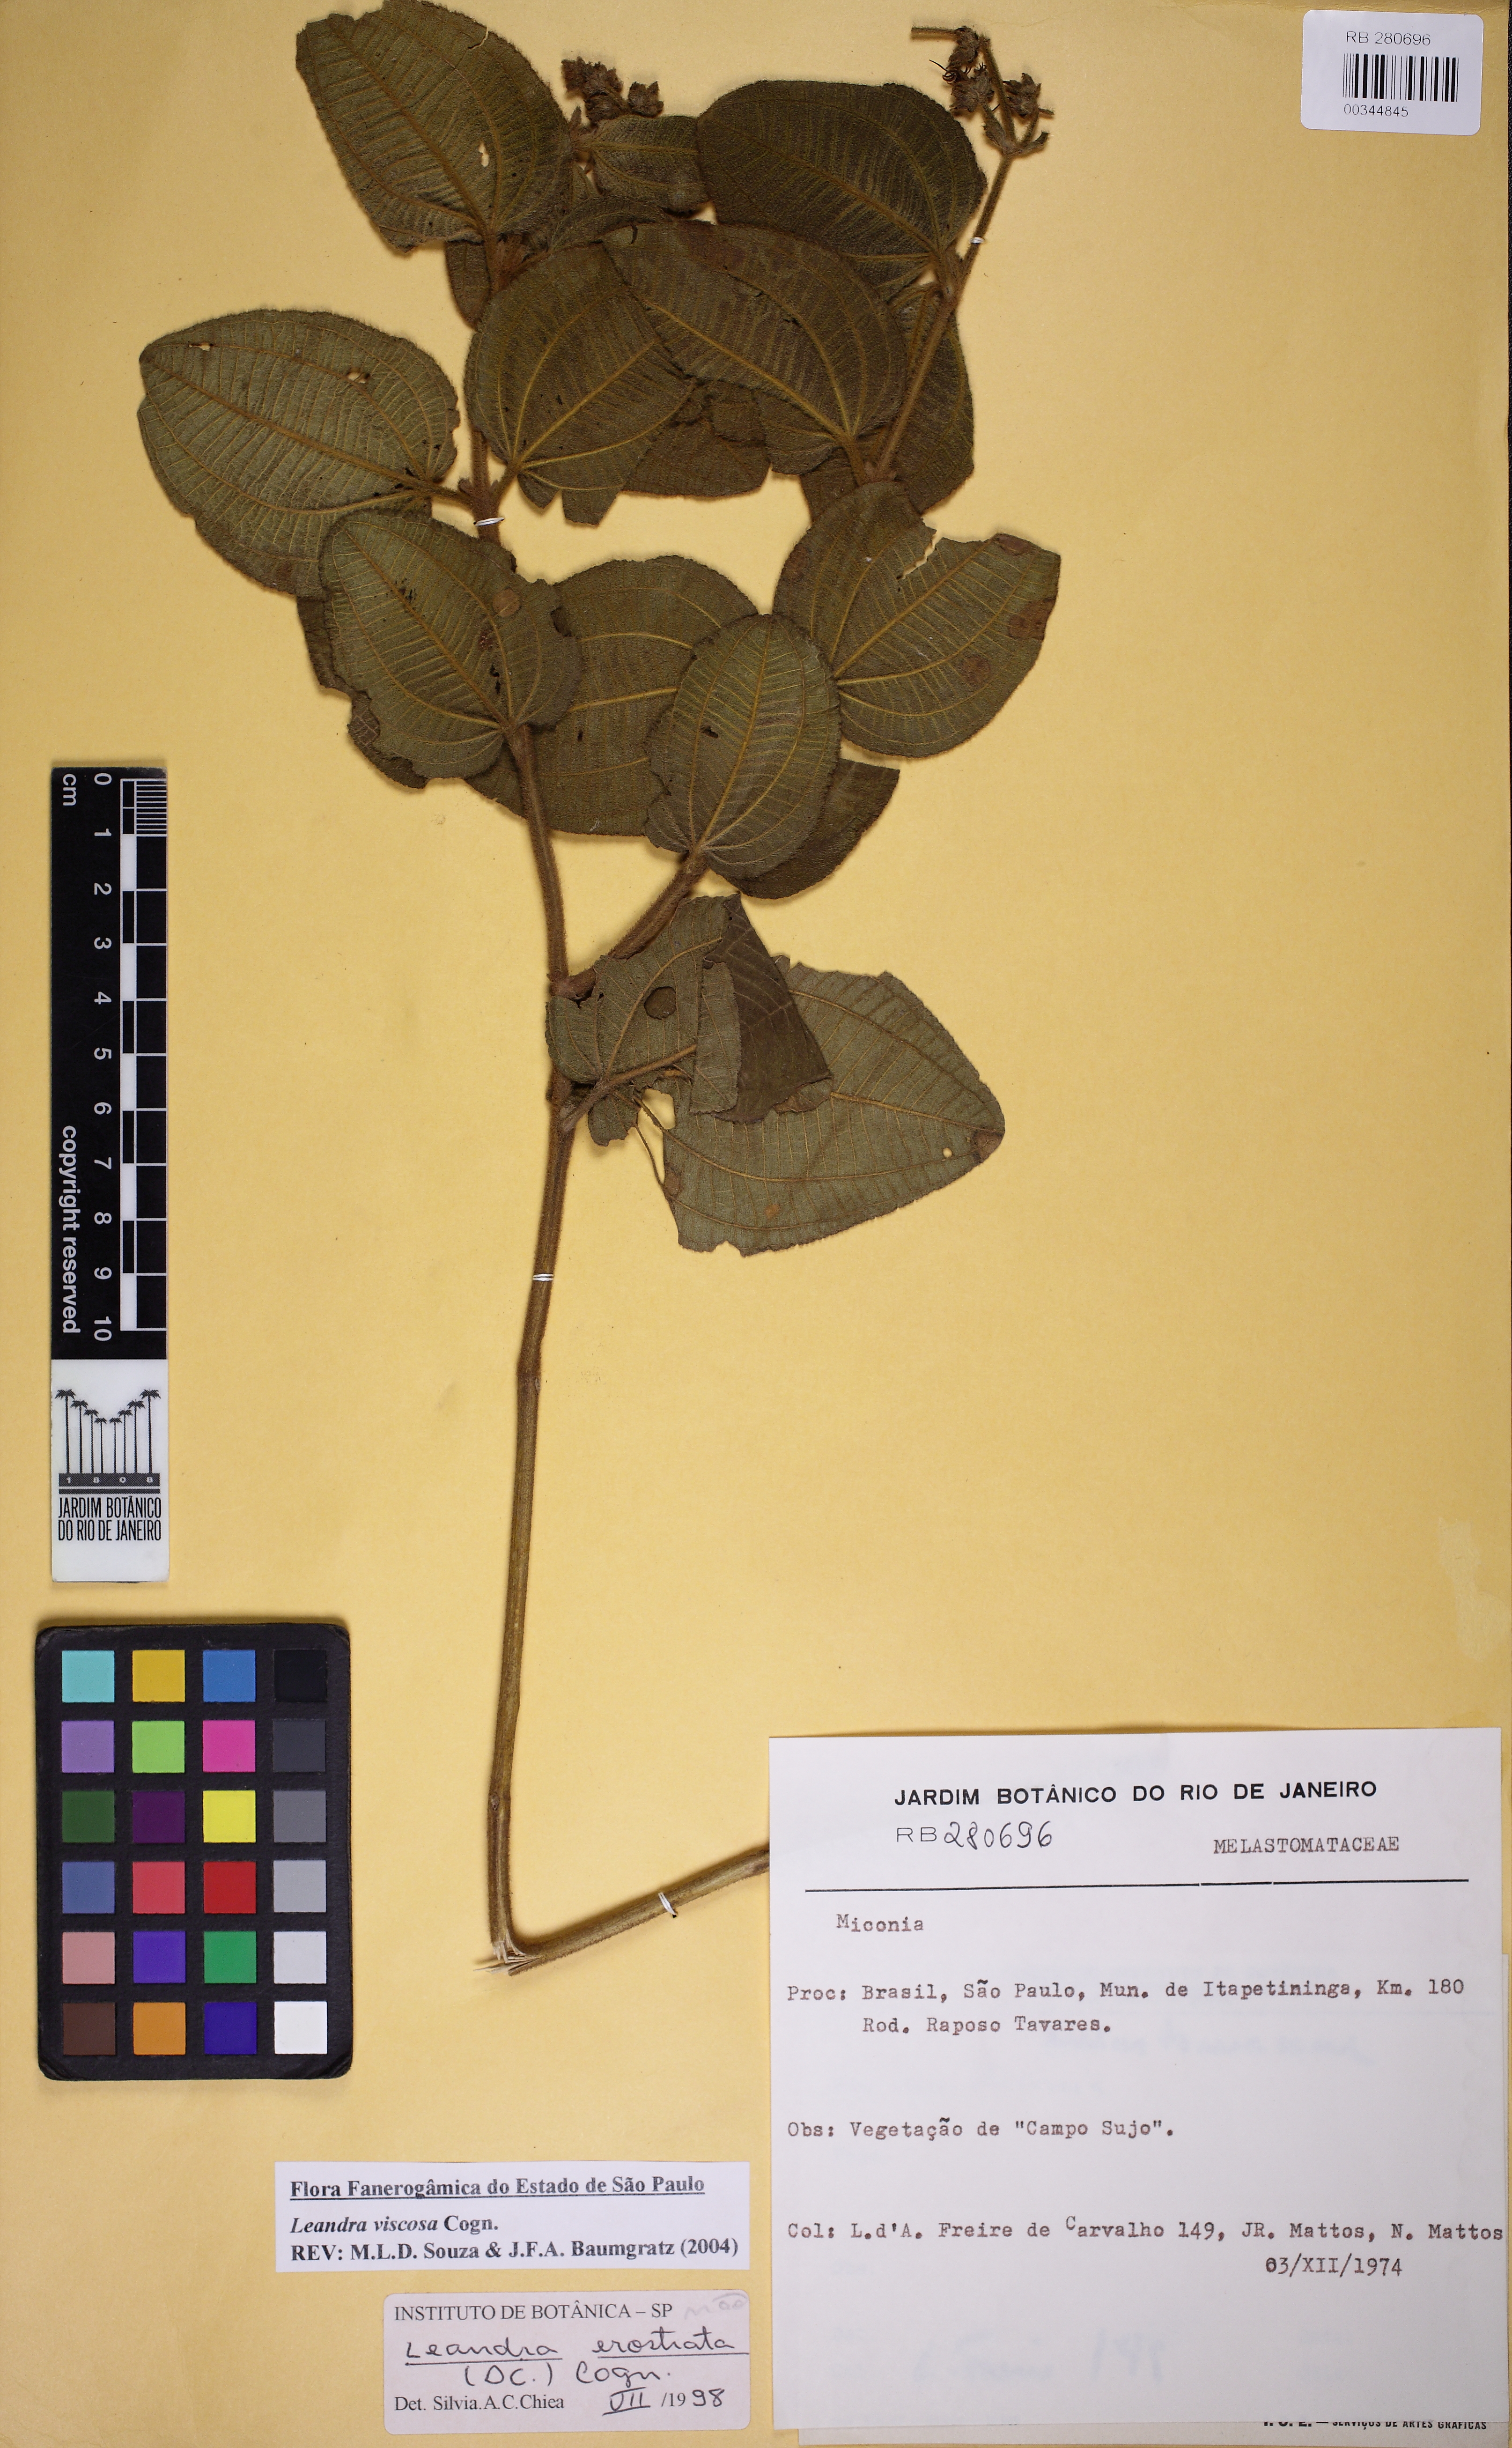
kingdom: Plantae
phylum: Tracheophyta
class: Magnoliopsida
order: Myrtales
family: Melastomataceae
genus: Miconia
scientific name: Miconia erostrata
